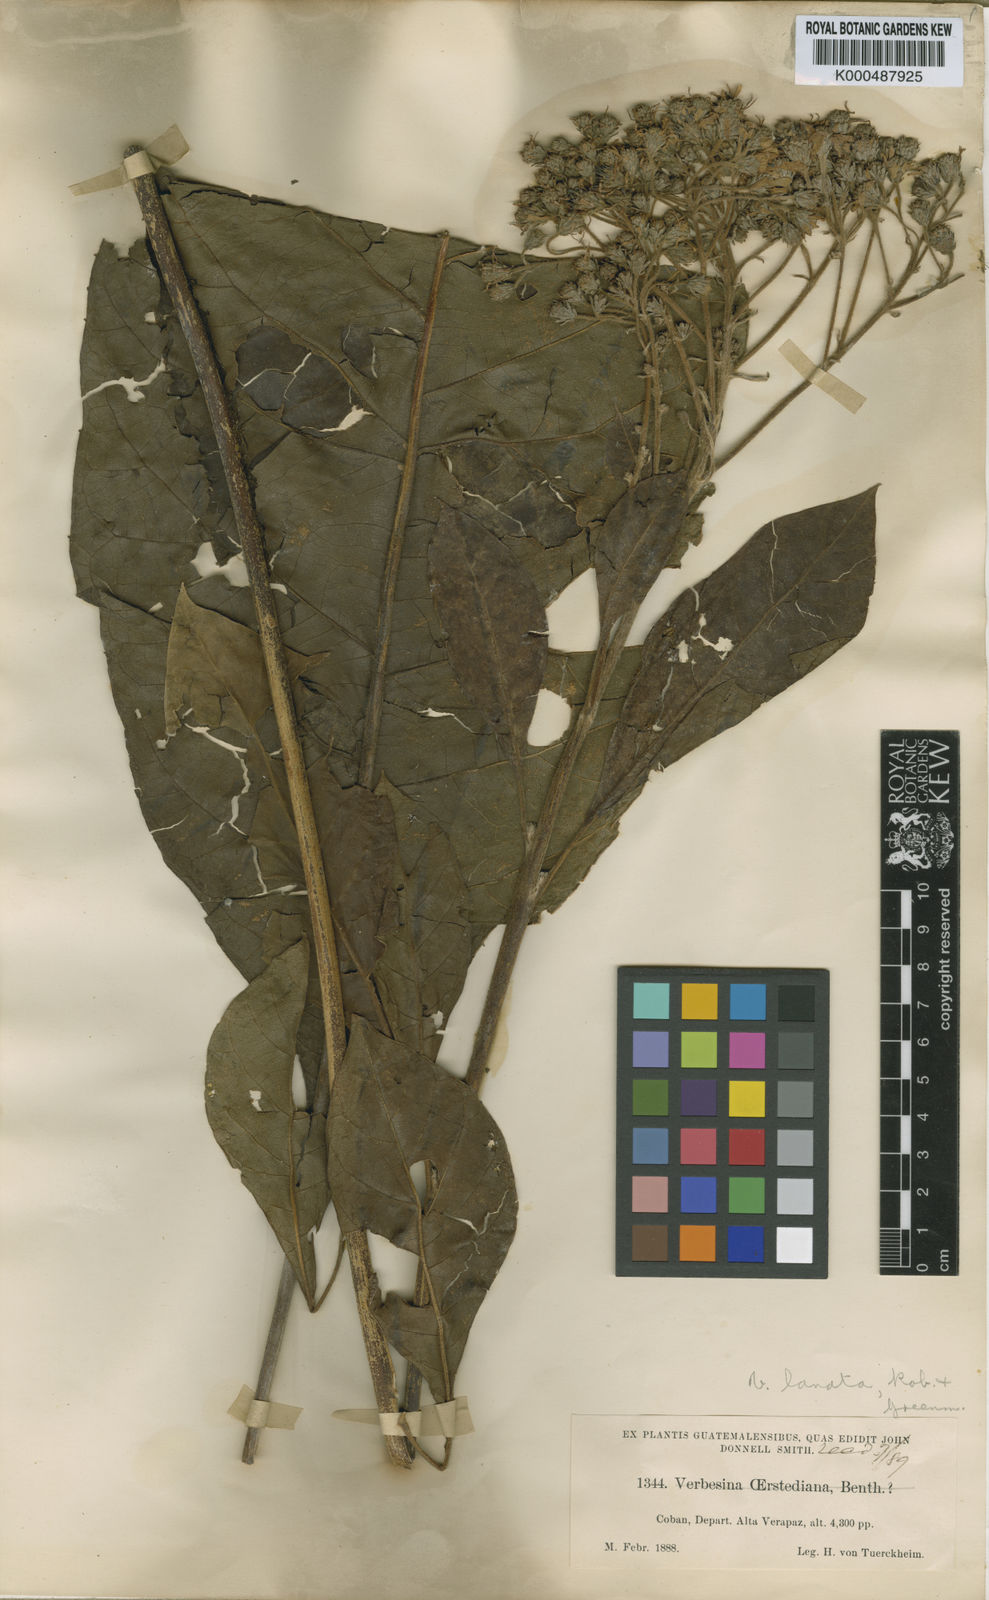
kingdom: Plantae
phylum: Tracheophyta
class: Magnoliopsida
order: Asterales
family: Asteraceae
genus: Verbesina
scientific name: Verbesina lanata
